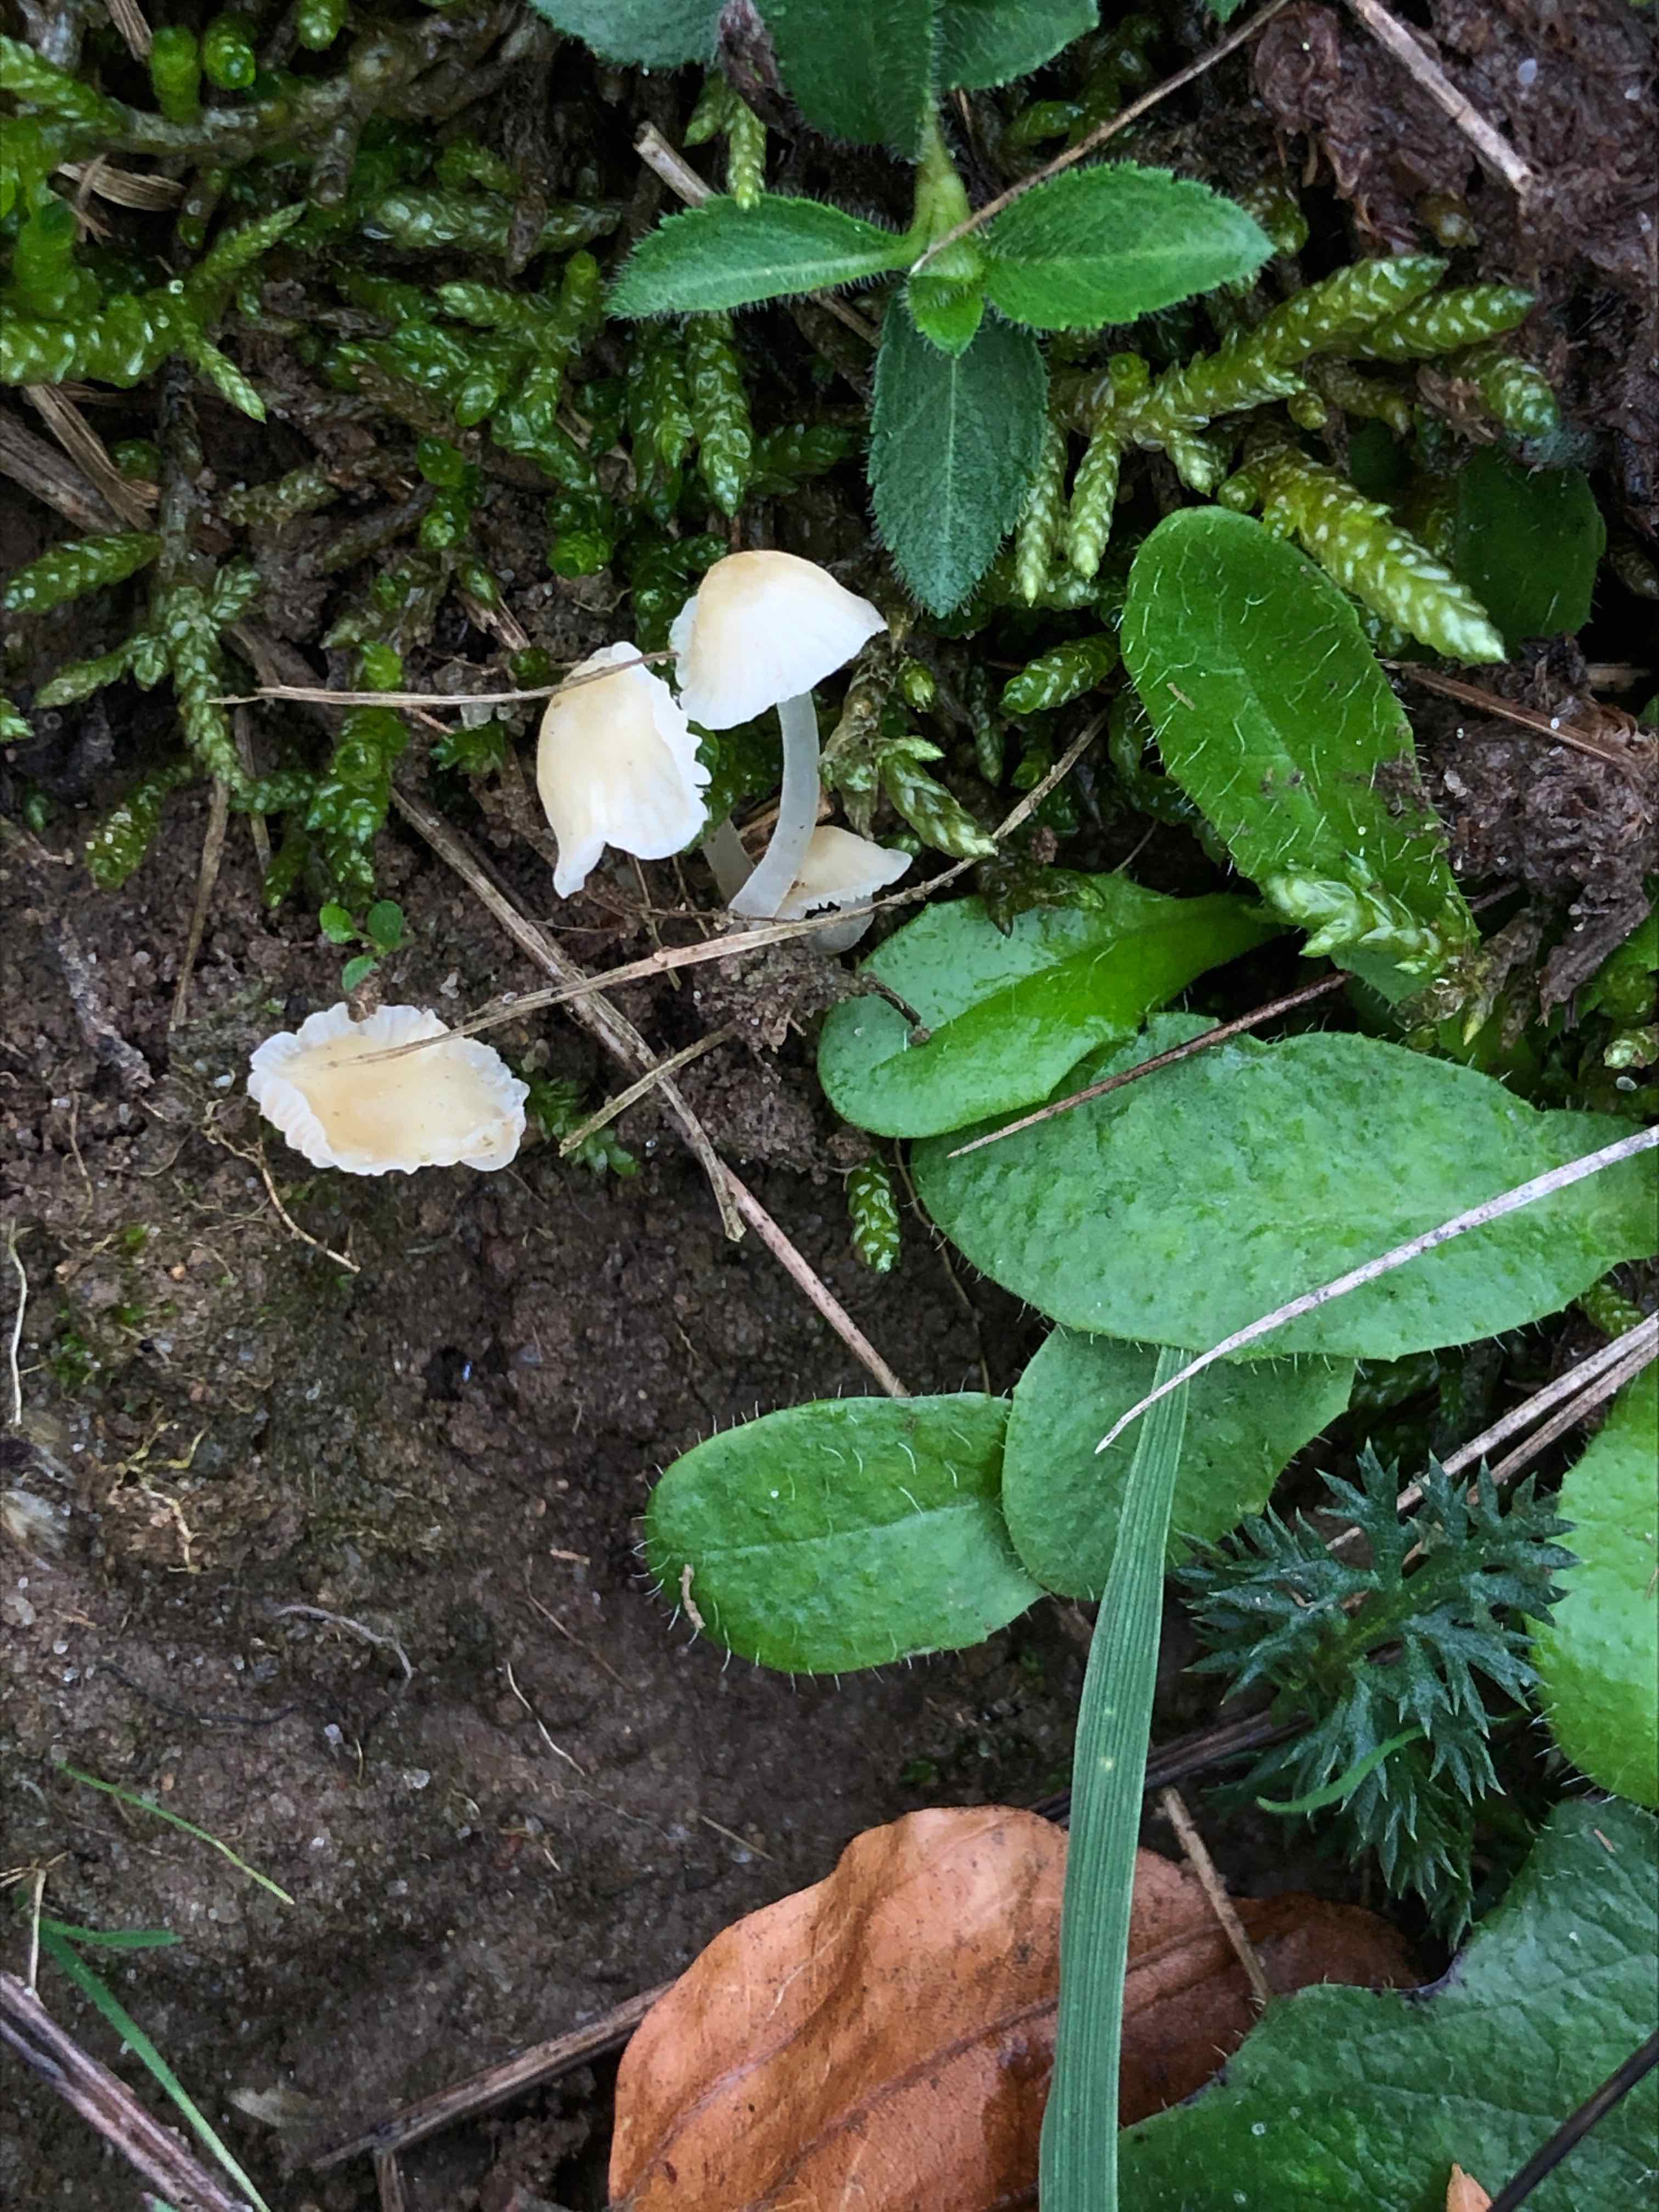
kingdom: Fungi
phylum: Basidiomycota
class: Agaricomycetes
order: Agaricales
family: Mycenaceae
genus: Atheniella
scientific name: Atheniella flavoalba
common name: gulhvid huesvamp
